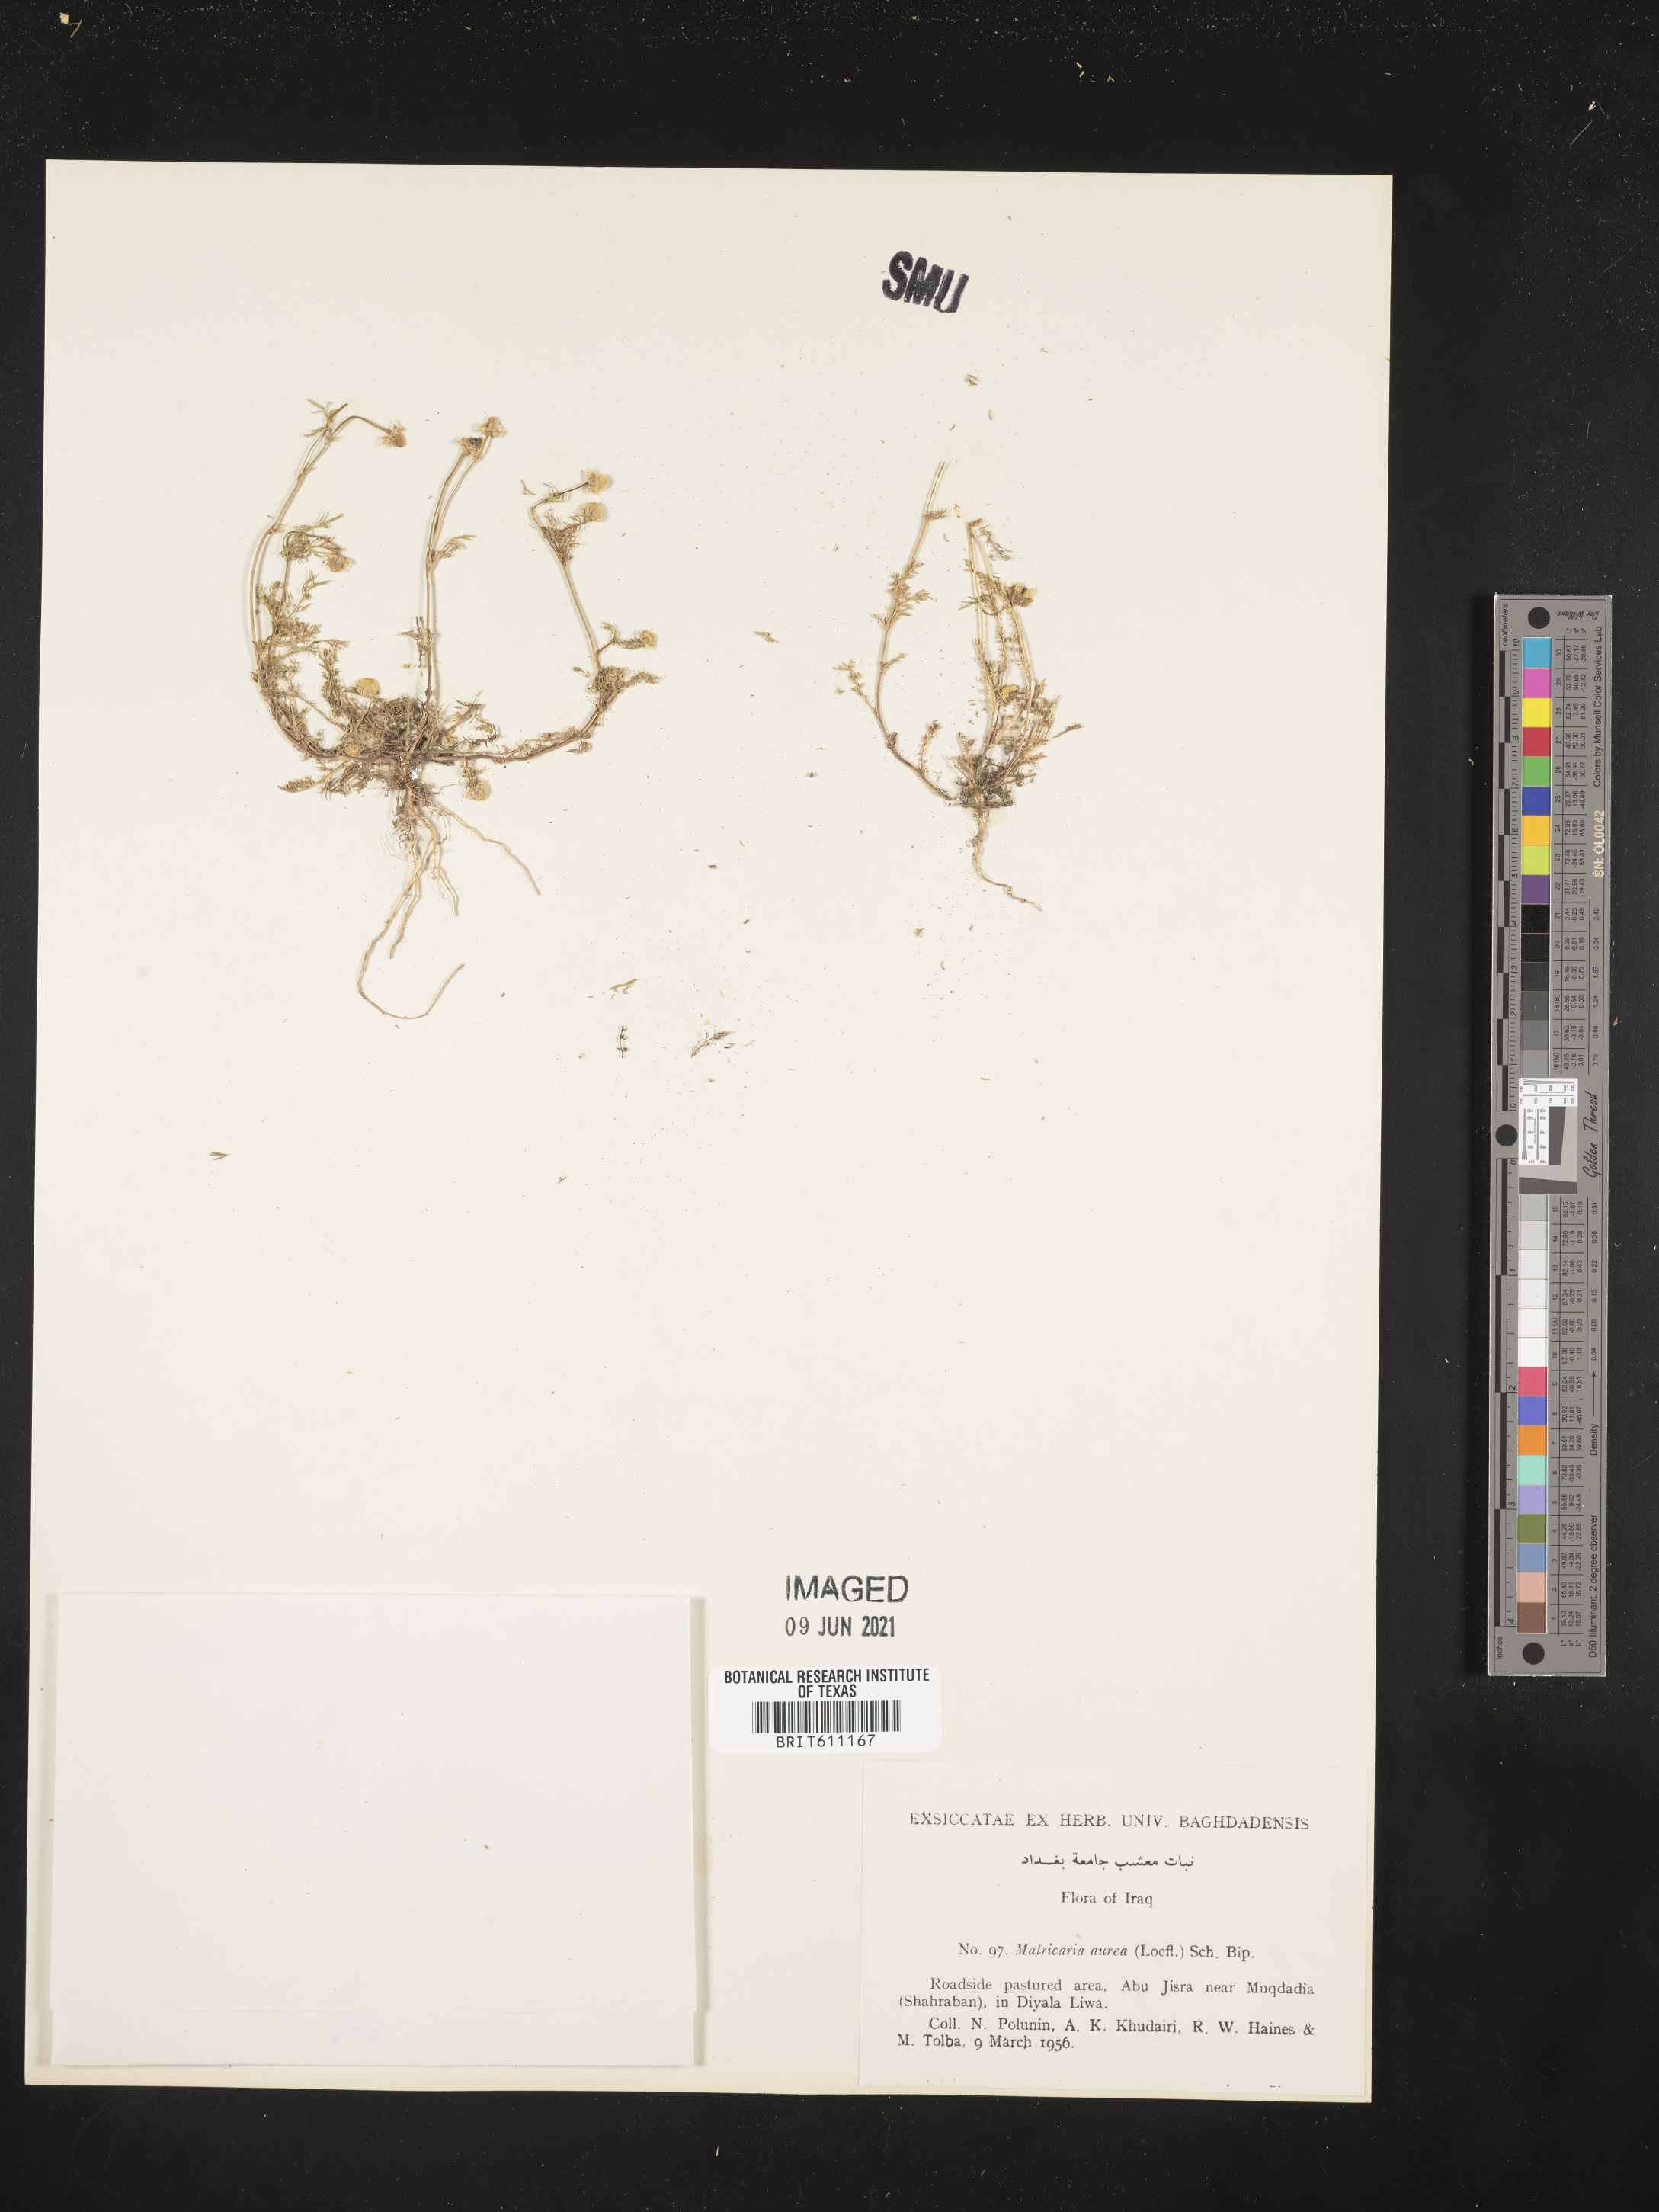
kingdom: Plantae
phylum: Tracheophyta
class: Magnoliopsida
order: Asterales
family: Asteraceae
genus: Matricaria
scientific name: Matricaria aurea
